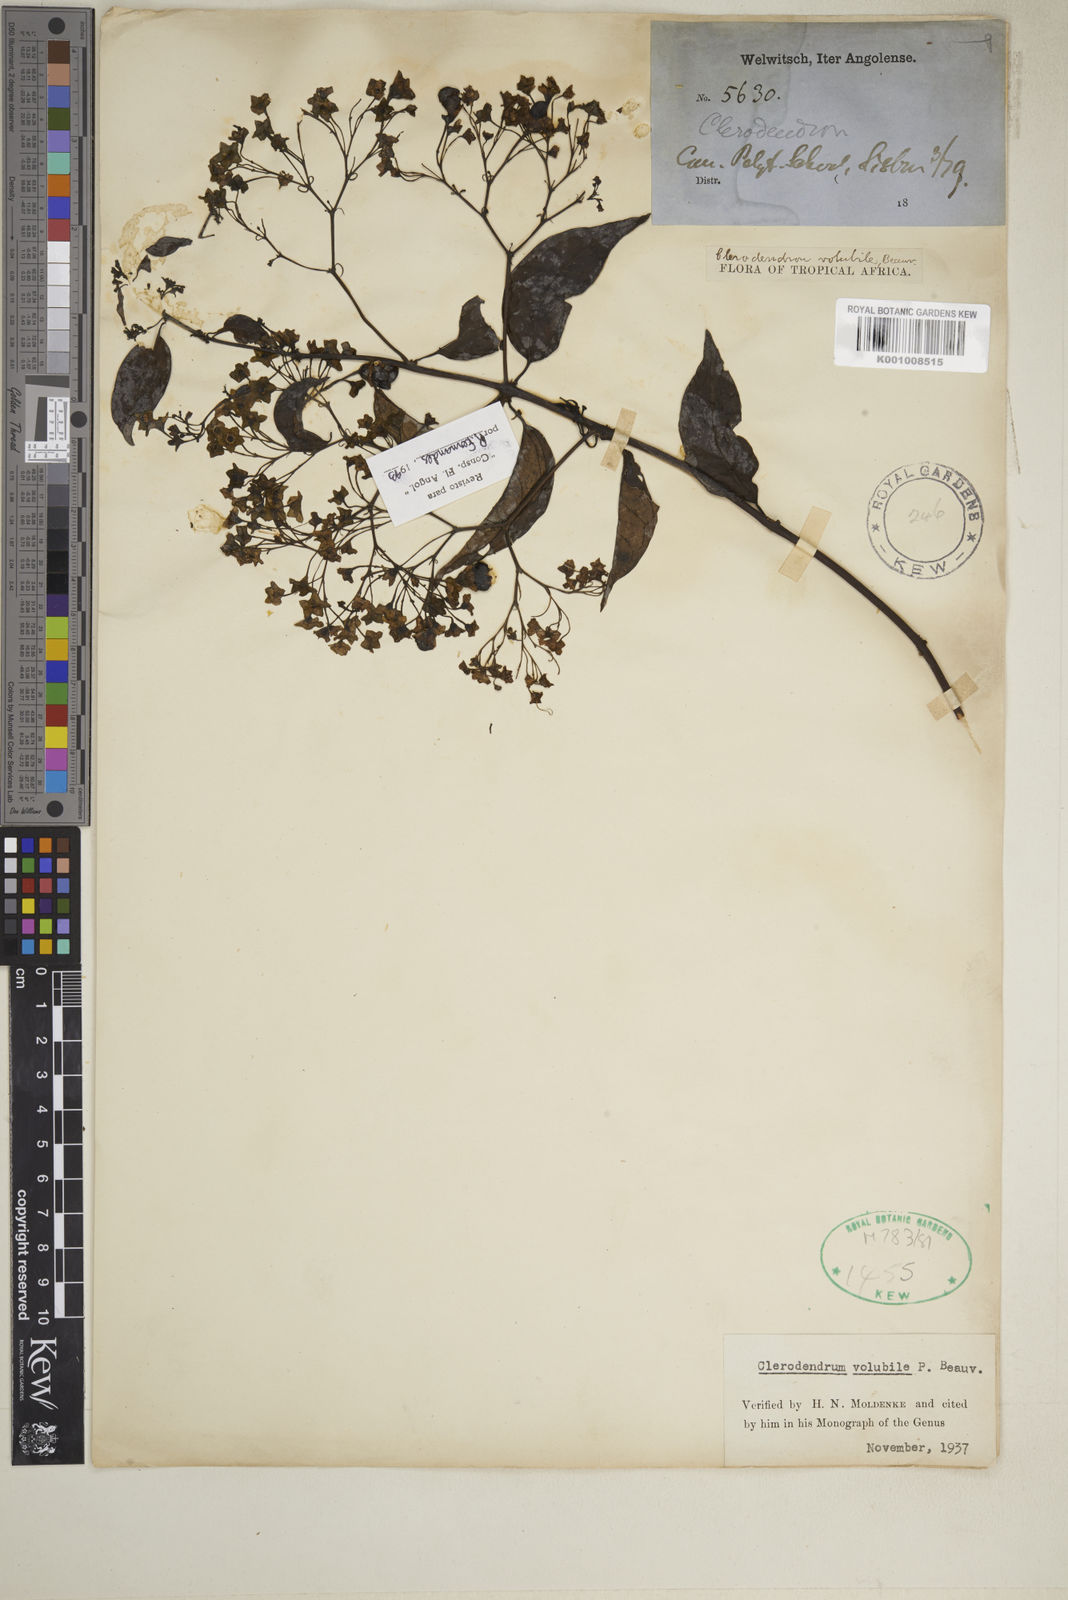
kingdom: Plantae
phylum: Tracheophyta
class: Magnoliopsida
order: Lamiales
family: Lamiaceae
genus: Clerodendrum
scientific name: Clerodendrum volubile
